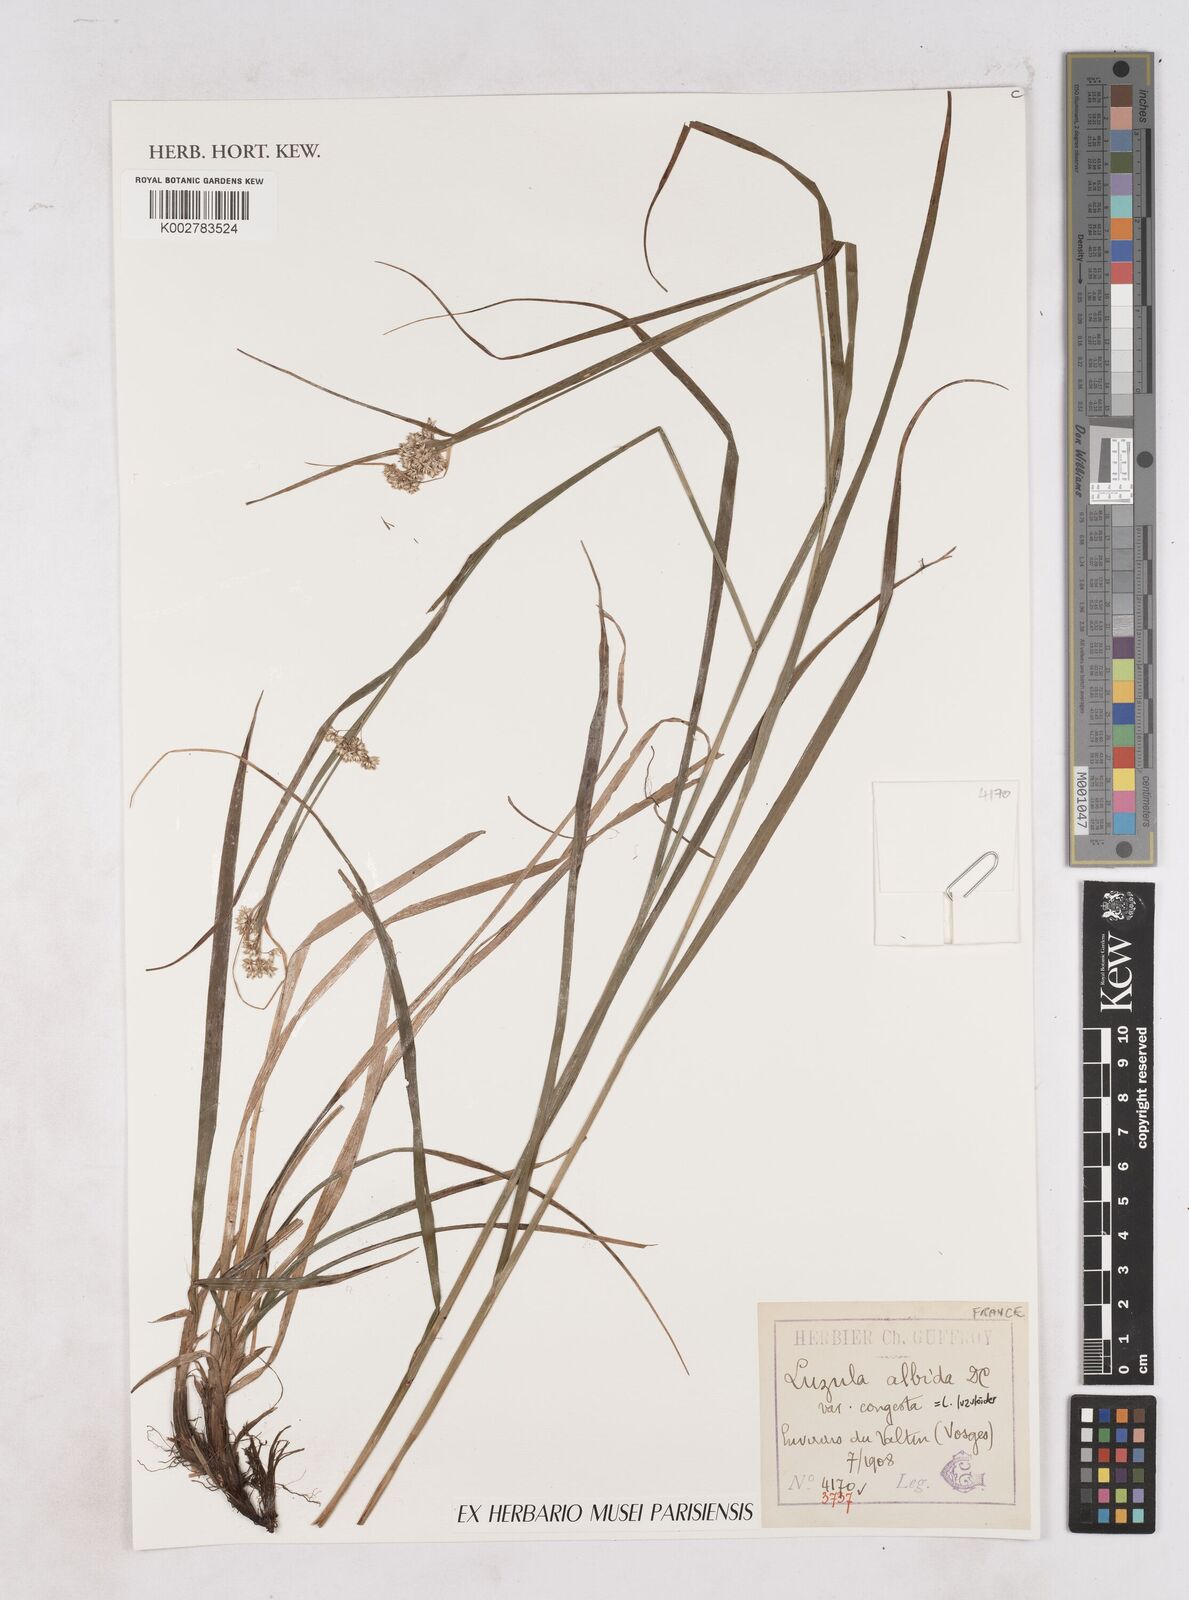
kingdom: Plantae
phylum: Tracheophyta
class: Liliopsida
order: Poales
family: Juncaceae
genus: Luzula
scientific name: Luzula luzuloides
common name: White wood-rush
